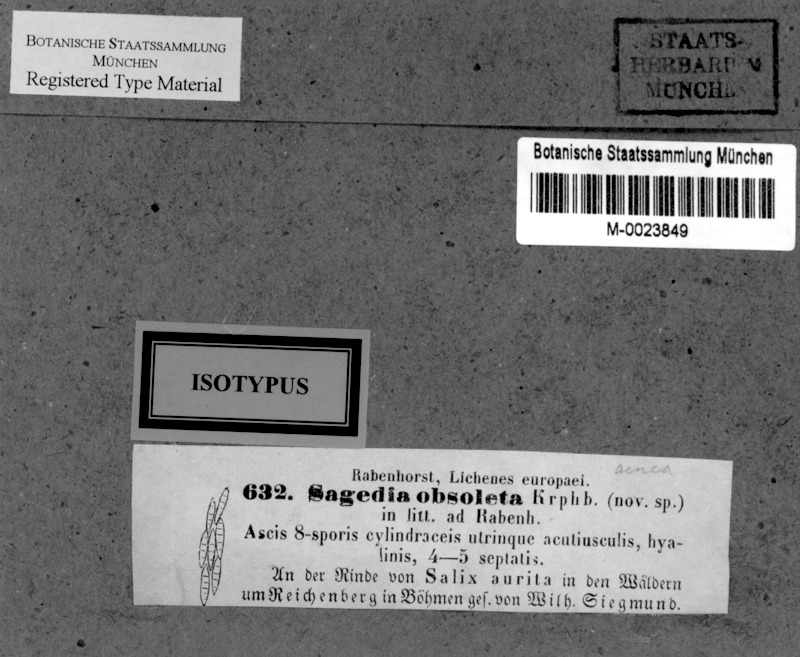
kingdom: Fungi
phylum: Ascomycota
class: Lecanoromycetes
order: Pertusariales
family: Pertusariaceae
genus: Porina
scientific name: Porina
